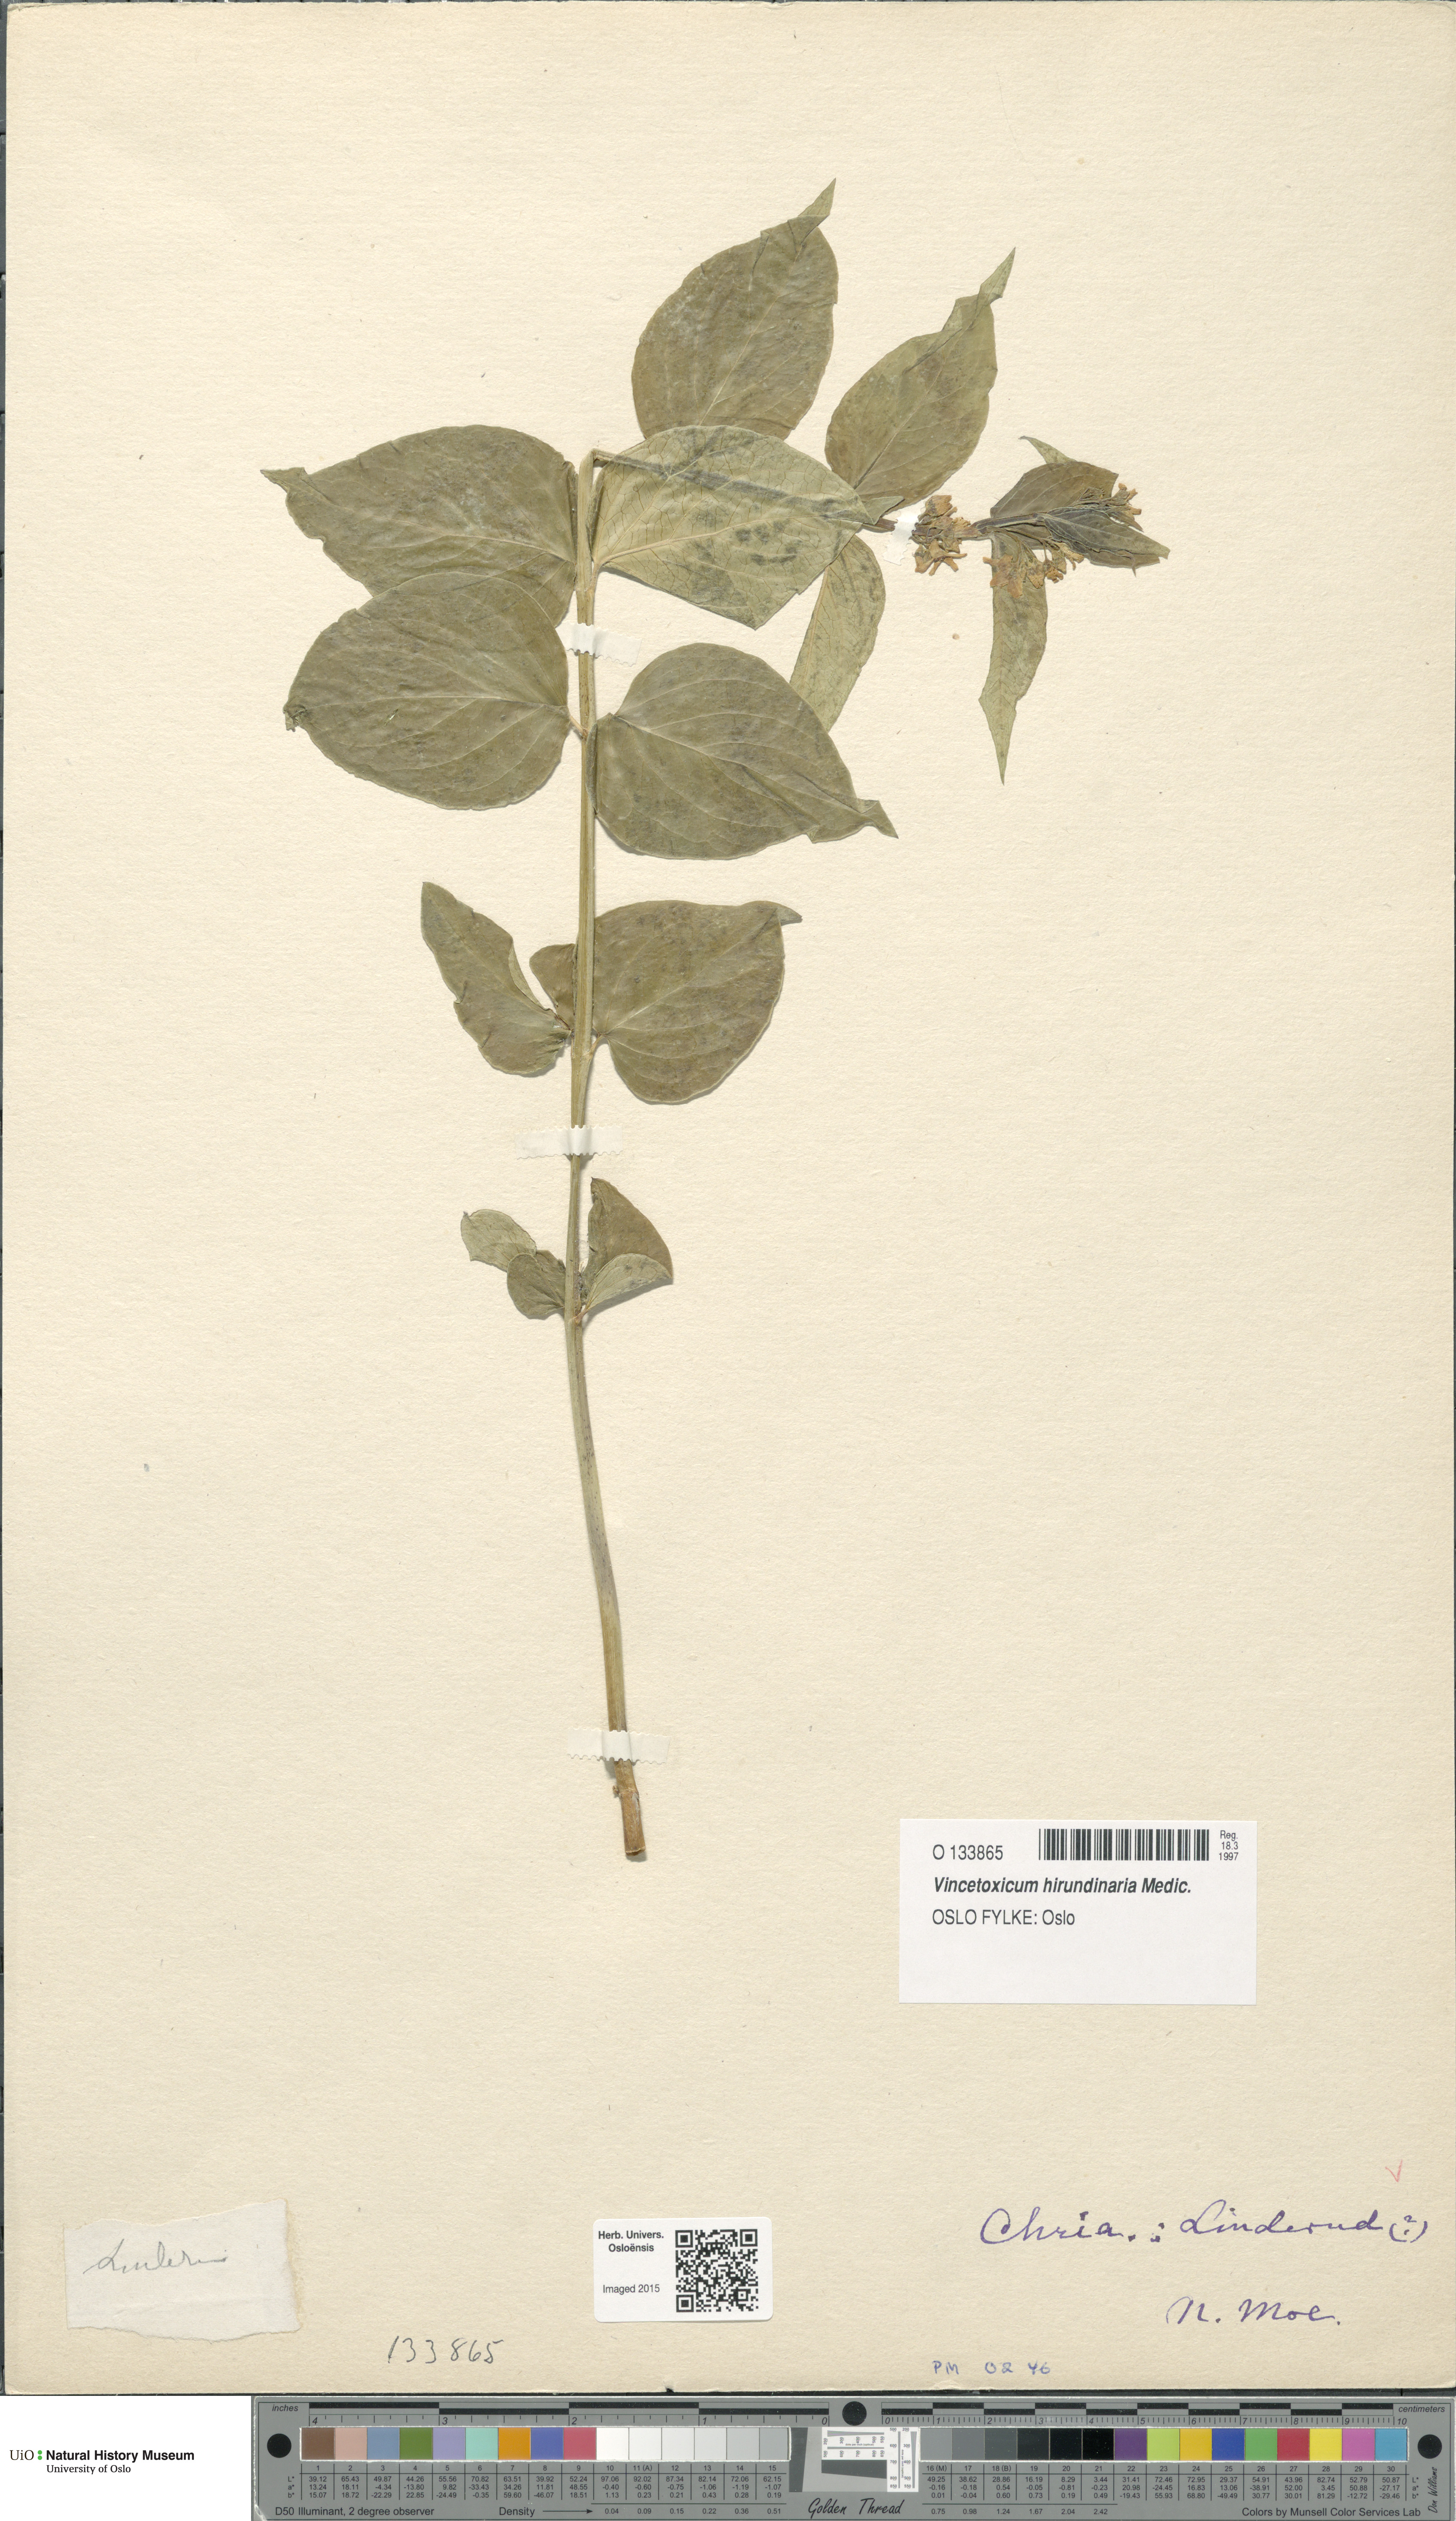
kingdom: Plantae
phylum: Tracheophyta
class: Magnoliopsida
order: Gentianales
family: Apocynaceae
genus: Vincetoxicum
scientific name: Vincetoxicum hirundinaria
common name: White swallowwort
